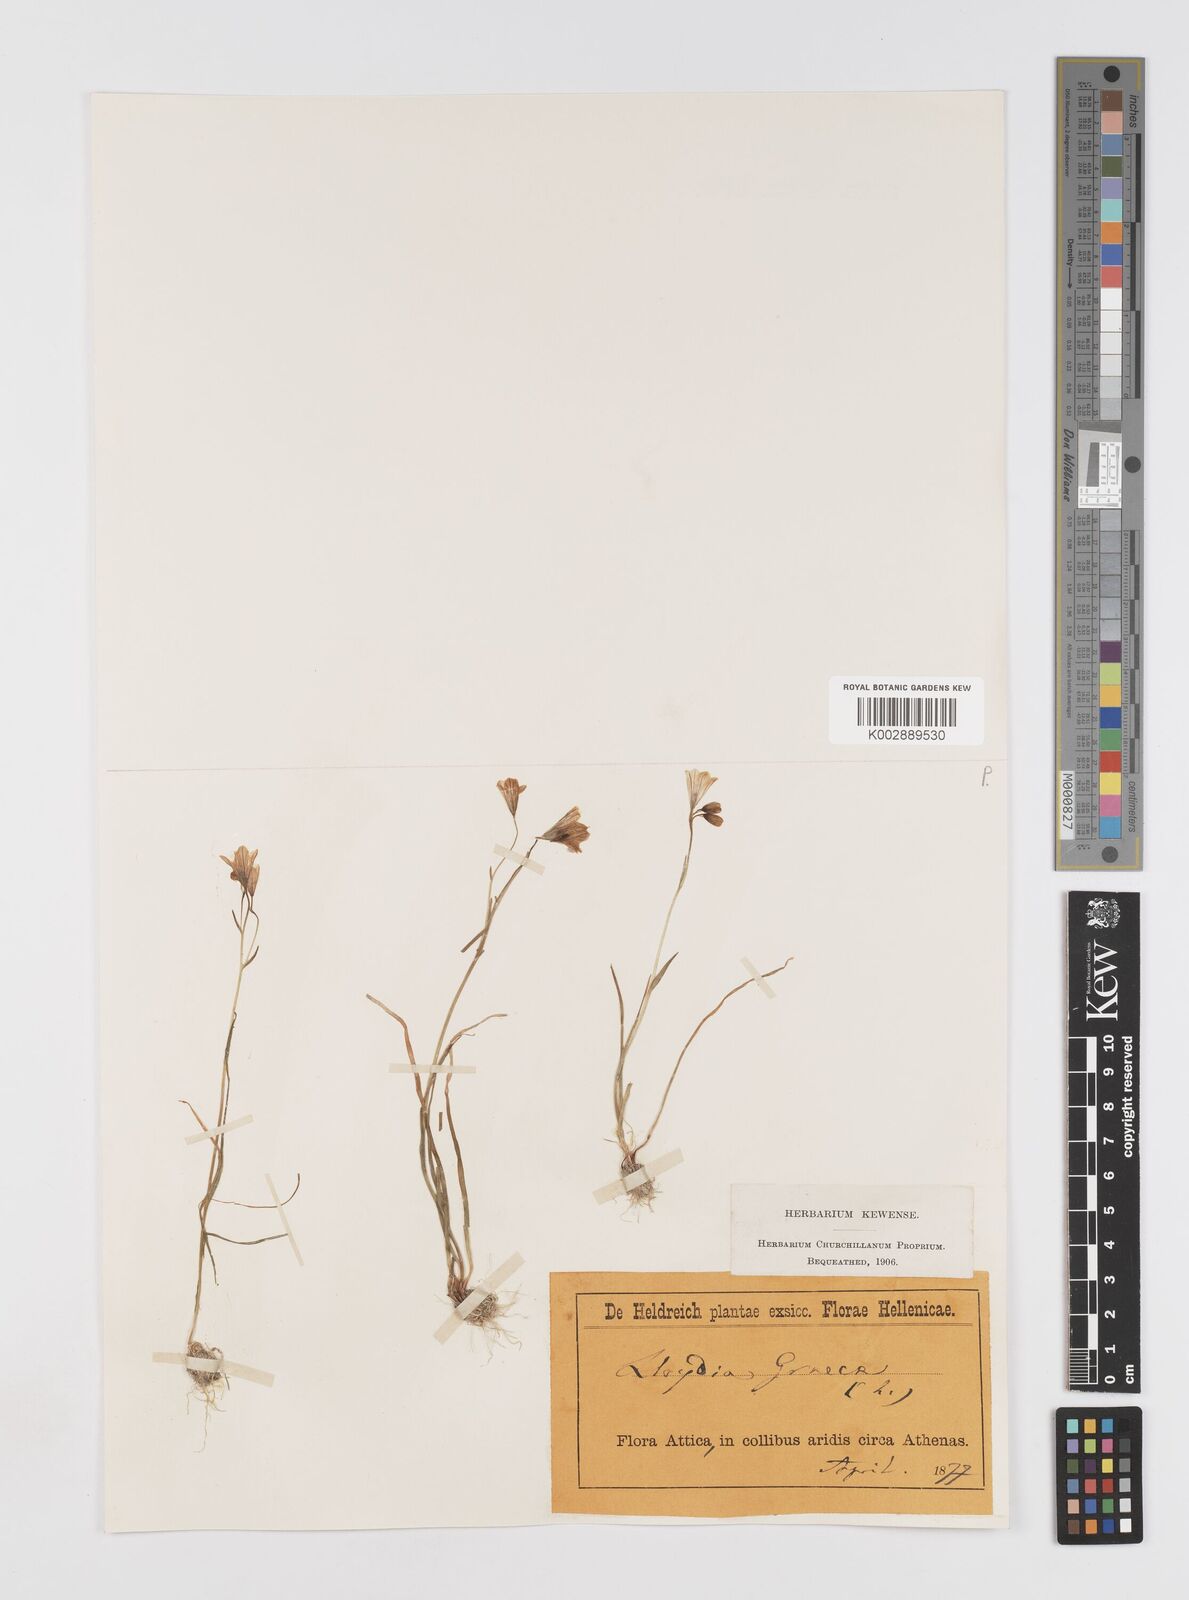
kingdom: Plantae
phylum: Tracheophyta
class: Liliopsida
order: Liliales
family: Liliaceae
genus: Gagea
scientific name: Gagea graeca
